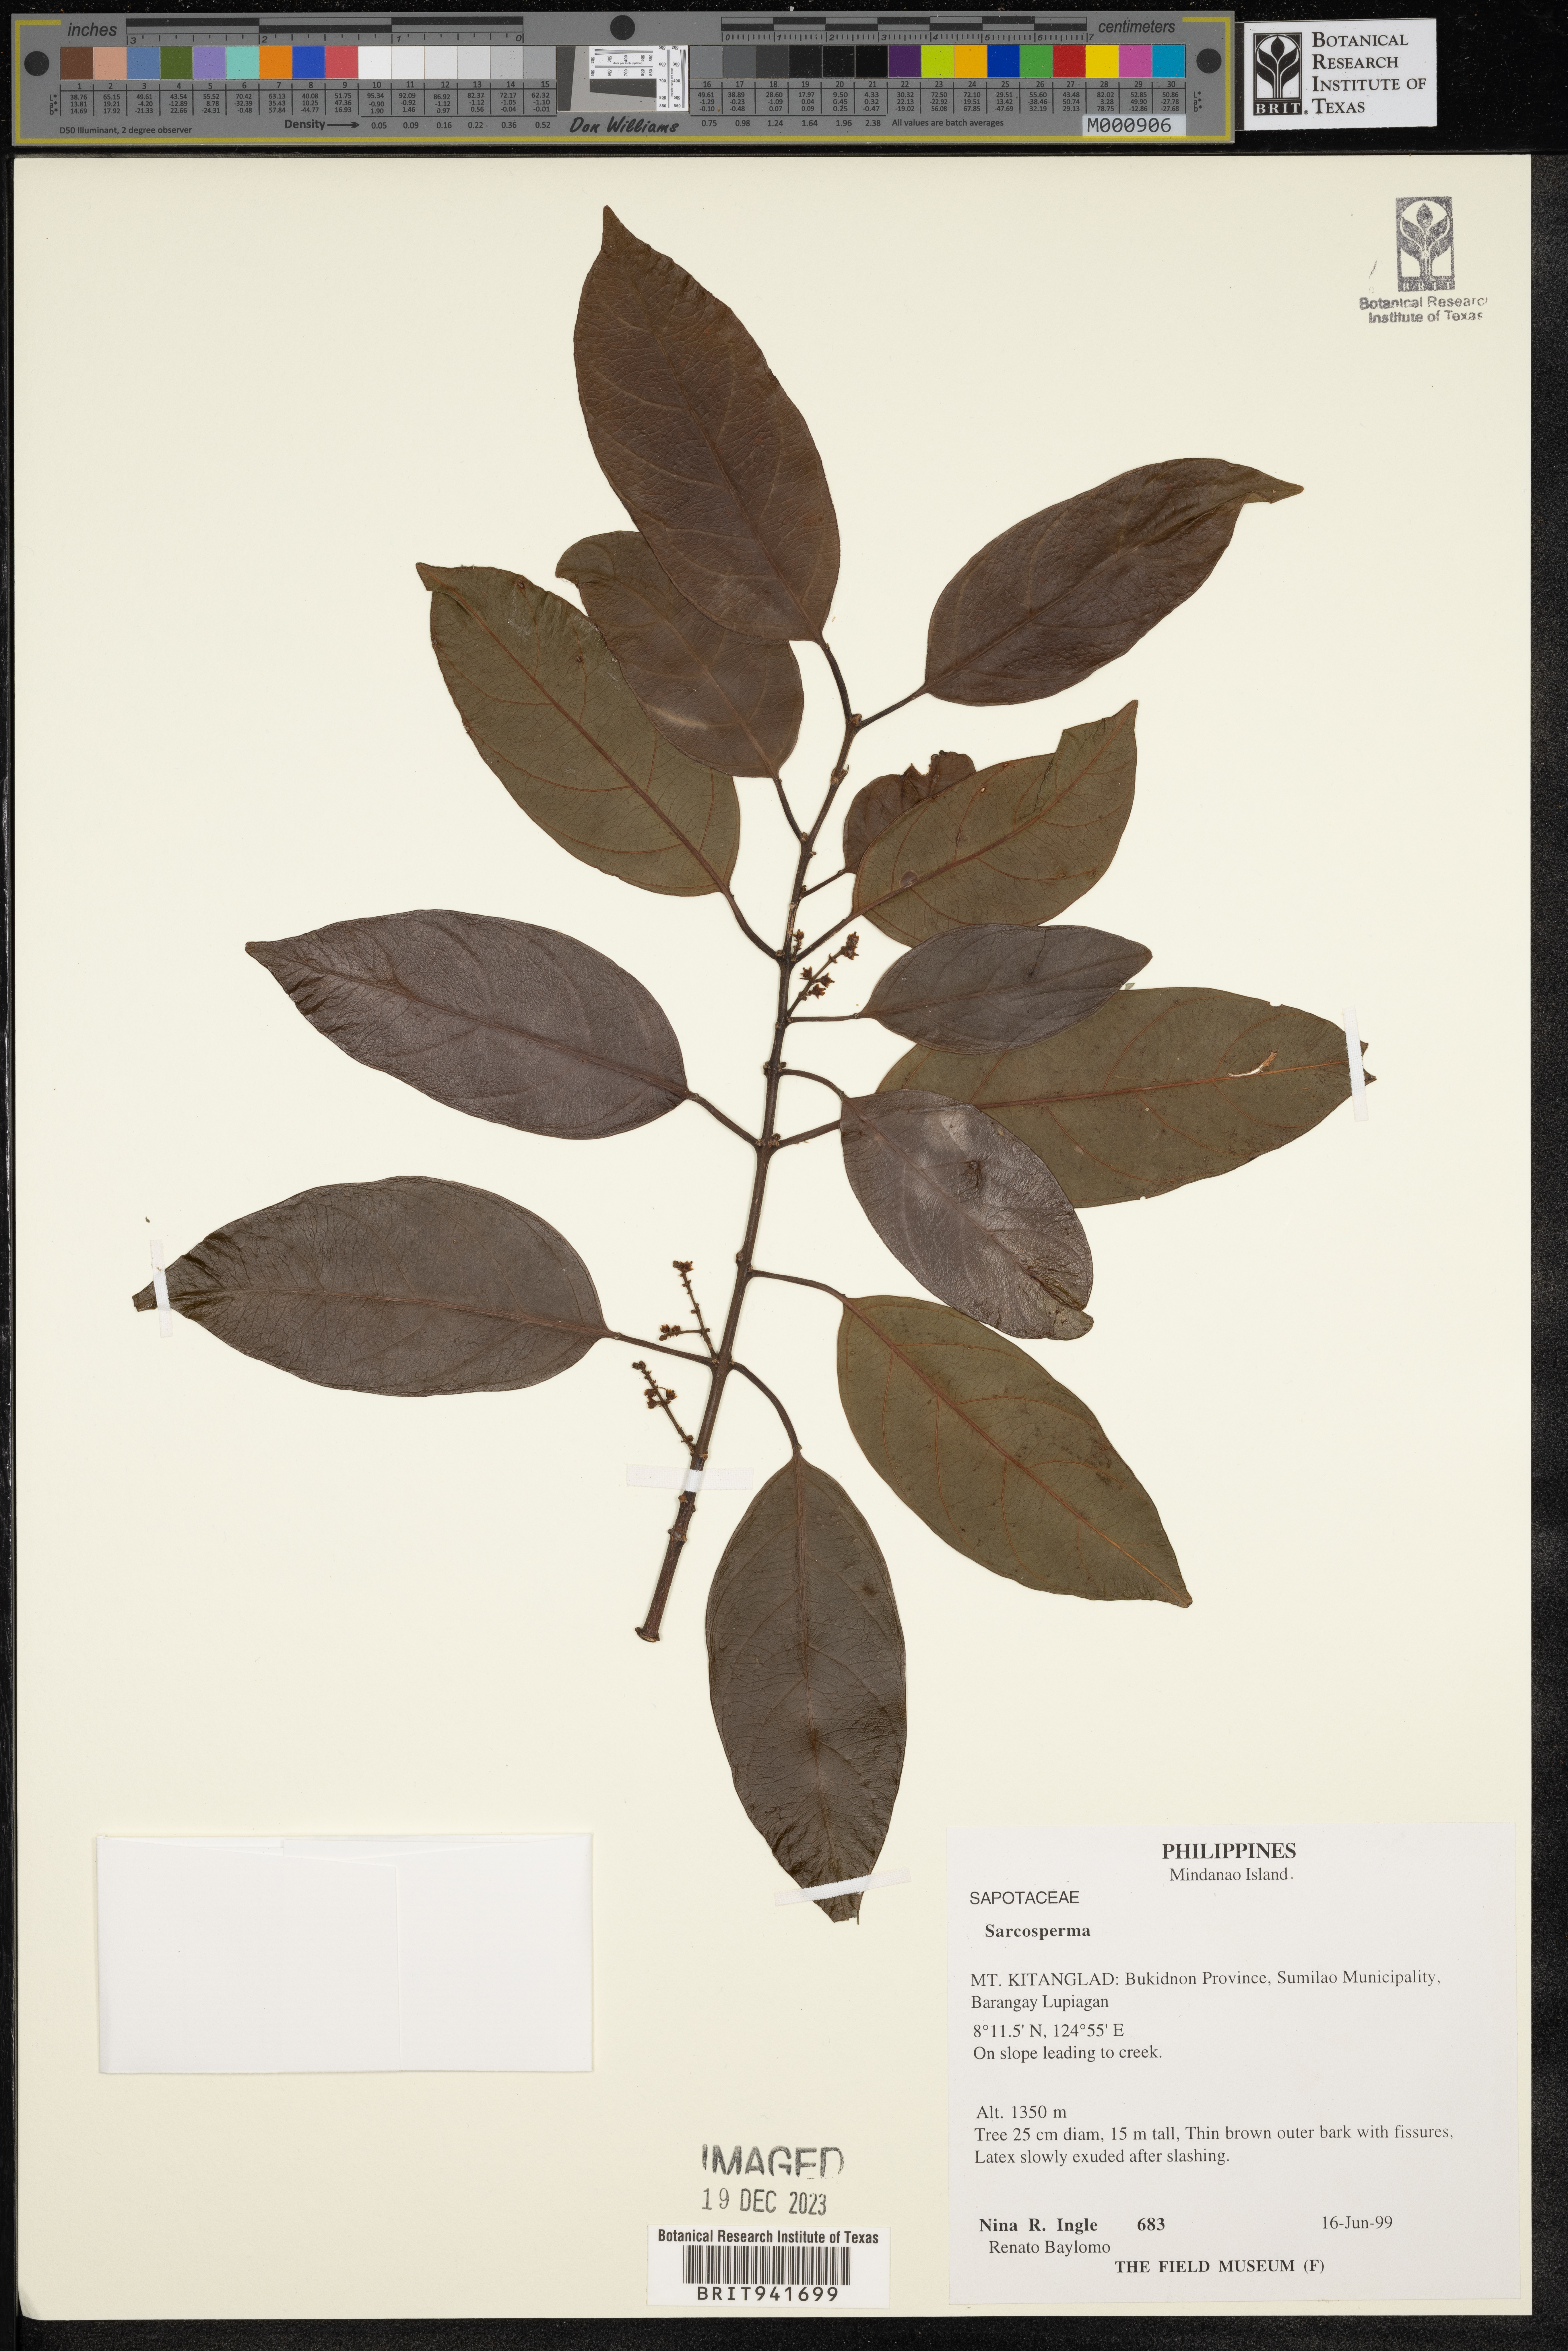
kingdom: Plantae
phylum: Tracheophyta
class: Magnoliopsida
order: Ericales
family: Sapotaceae
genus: Sarcosperma
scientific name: Sarcosperma
